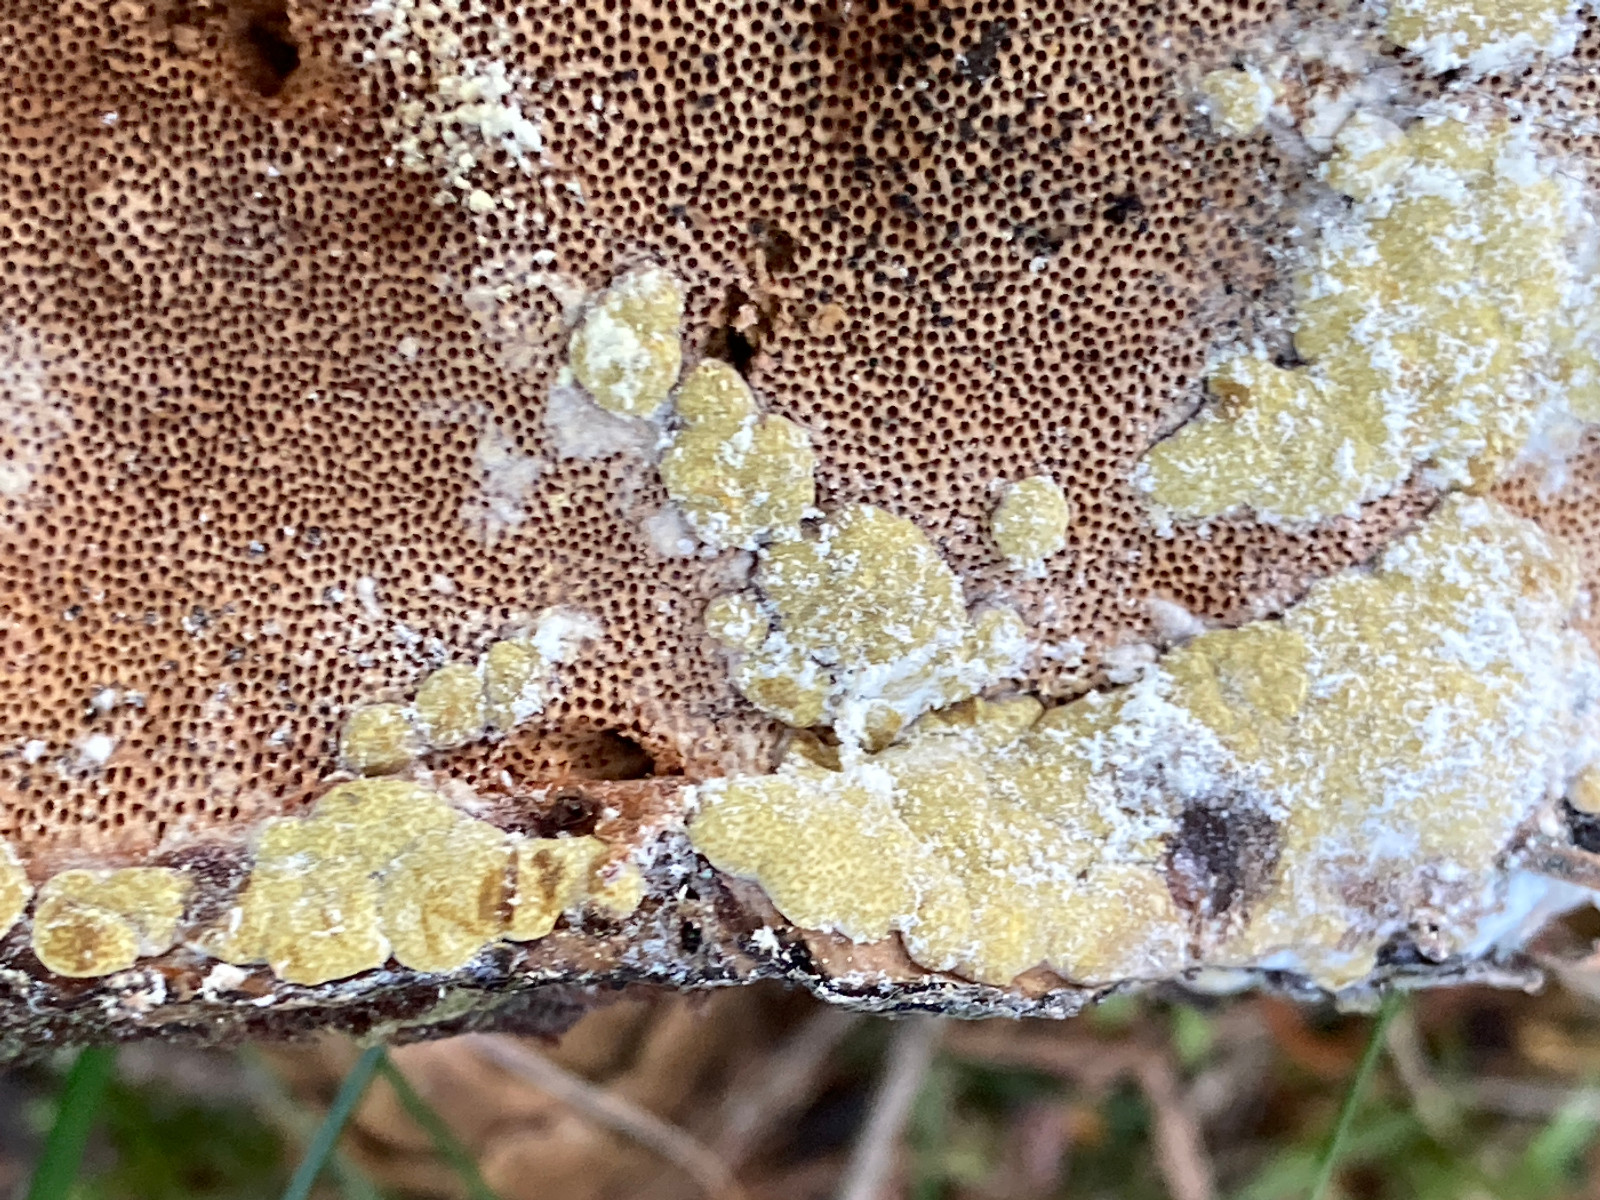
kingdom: Fungi
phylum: Ascomycota
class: Sordariomycetes
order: Hypocreales
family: Hypocreaceae
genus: Trichoderma
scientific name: Trichoderma pulvinatum
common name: snyltende kødkerne
